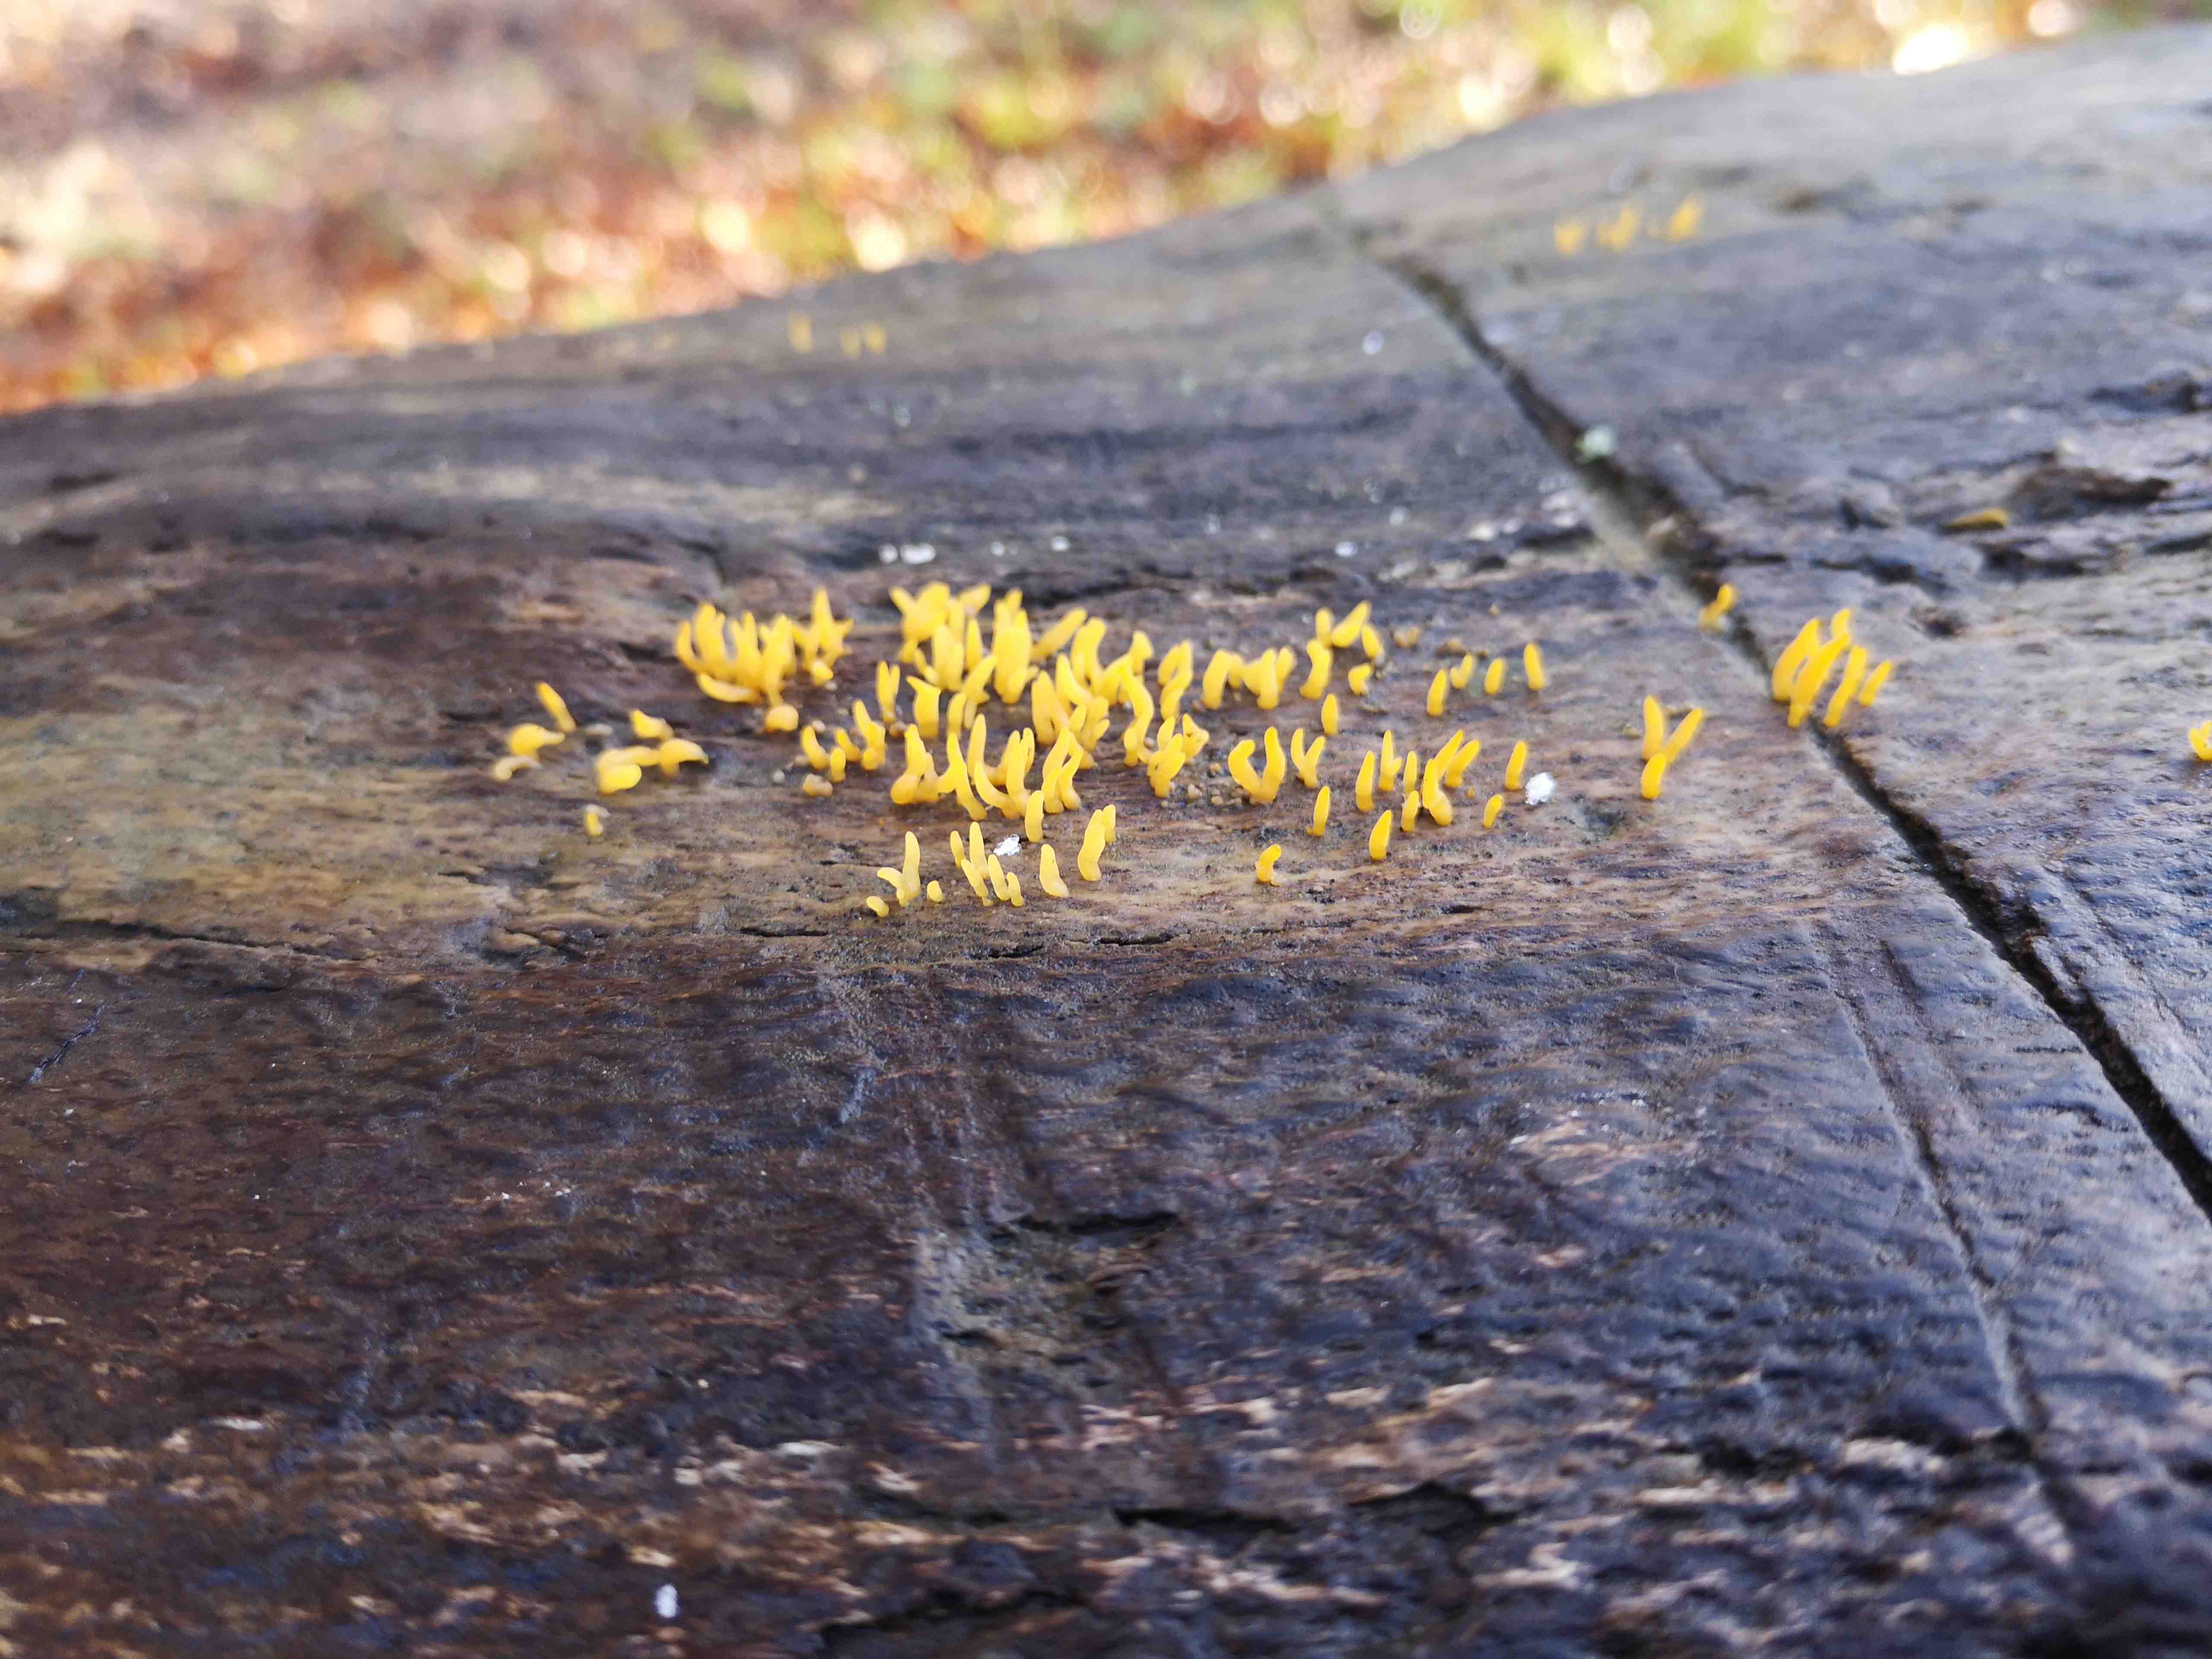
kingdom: Fungi
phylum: Basidiomycota
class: Dacrymycetes
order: Dacrymycetales
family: Dacrymycetaceae
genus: Calocera
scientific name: Calocera cornea
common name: liden guldgaffel
